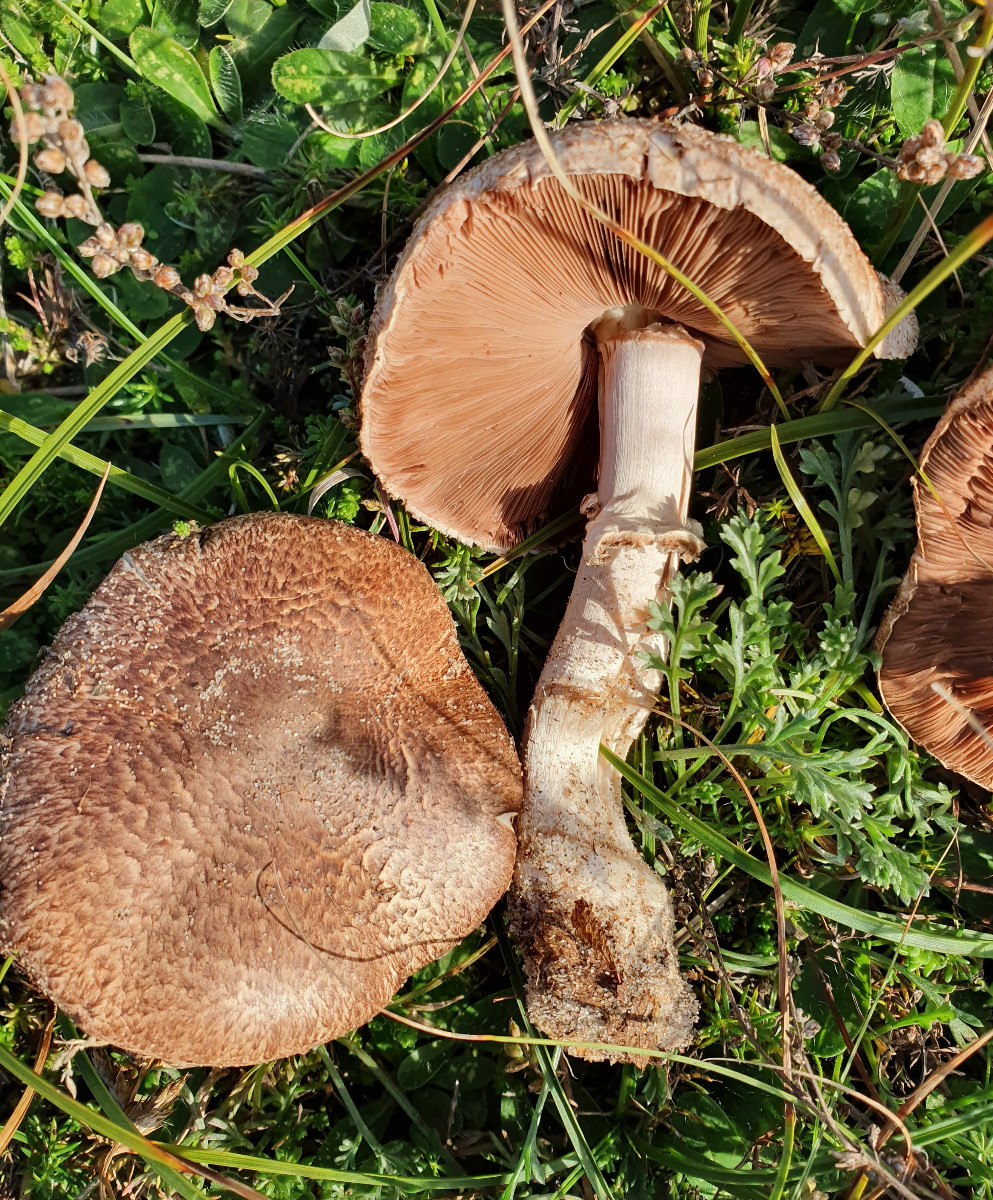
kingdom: Fungi
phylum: Basidiomycota
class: Agaricomycetes
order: Agaricales
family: Agaricaceae
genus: Agaricus
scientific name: Agaricus
